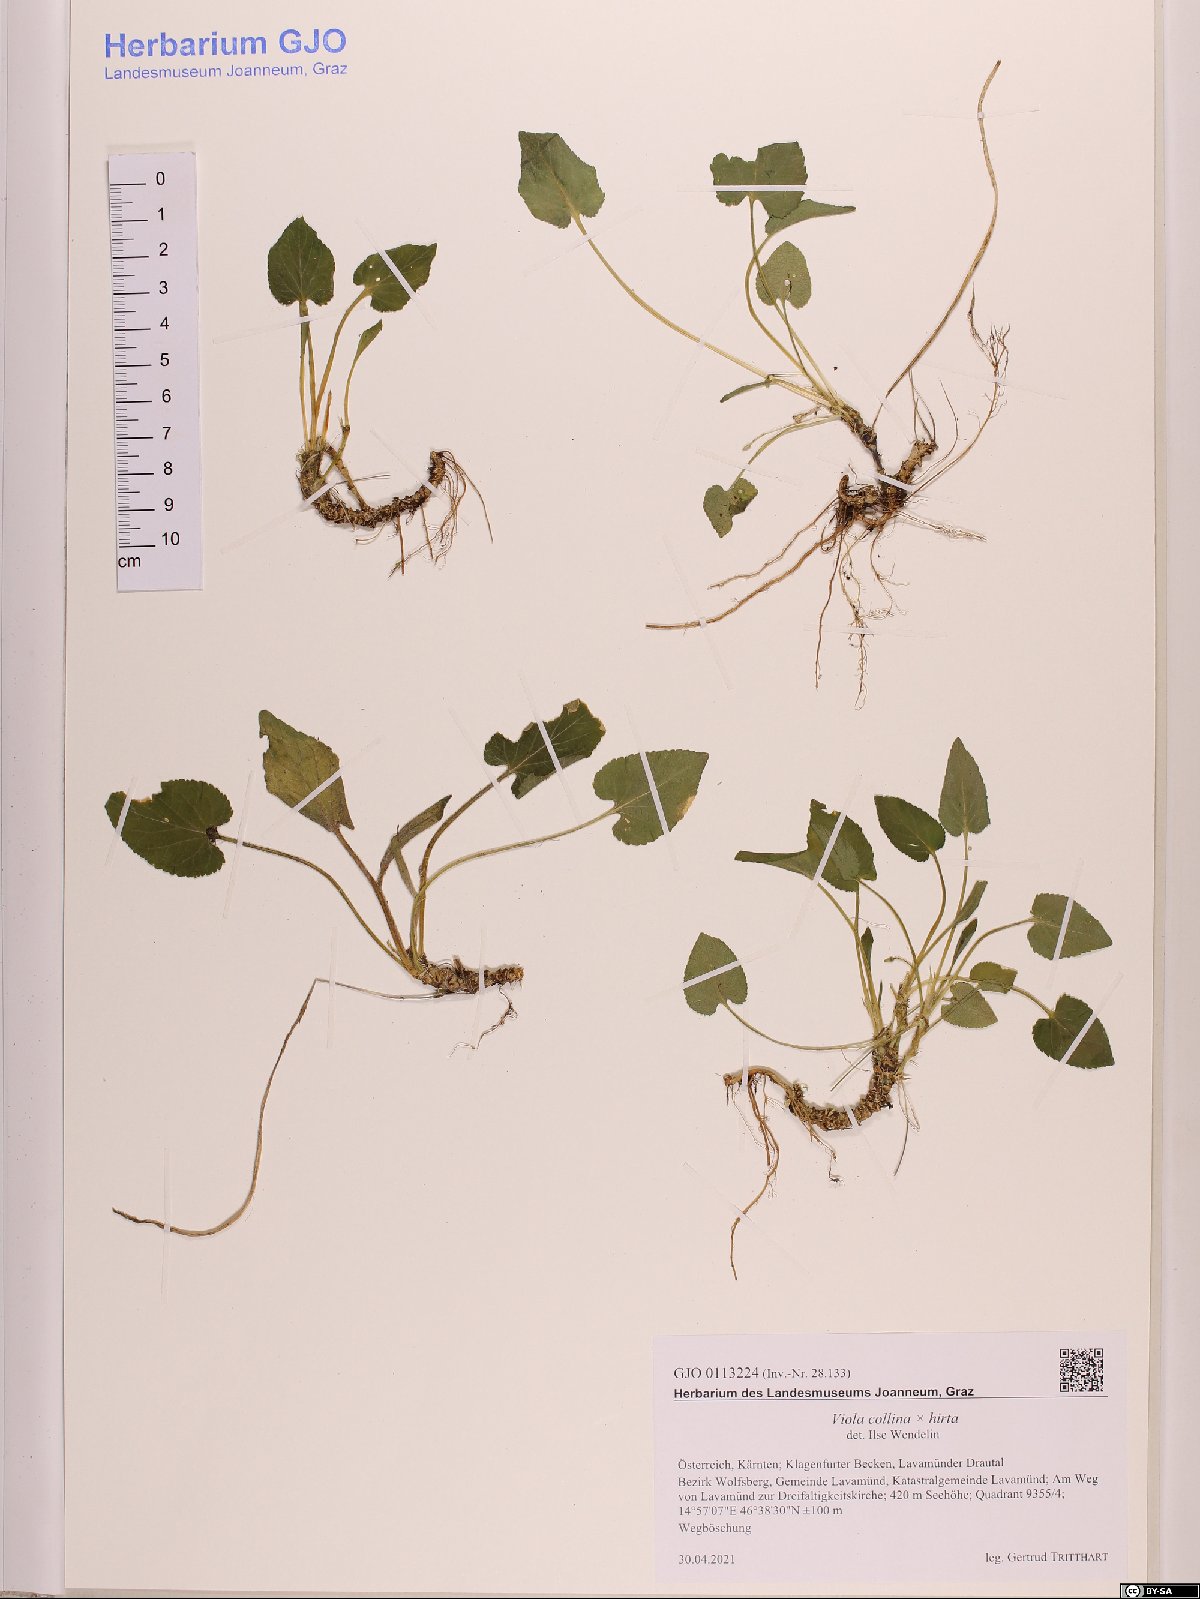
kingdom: Plantae
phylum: Tracheophyta
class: Magnoliopsida
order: Malpighiales
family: Violaceae
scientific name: Violaceae
